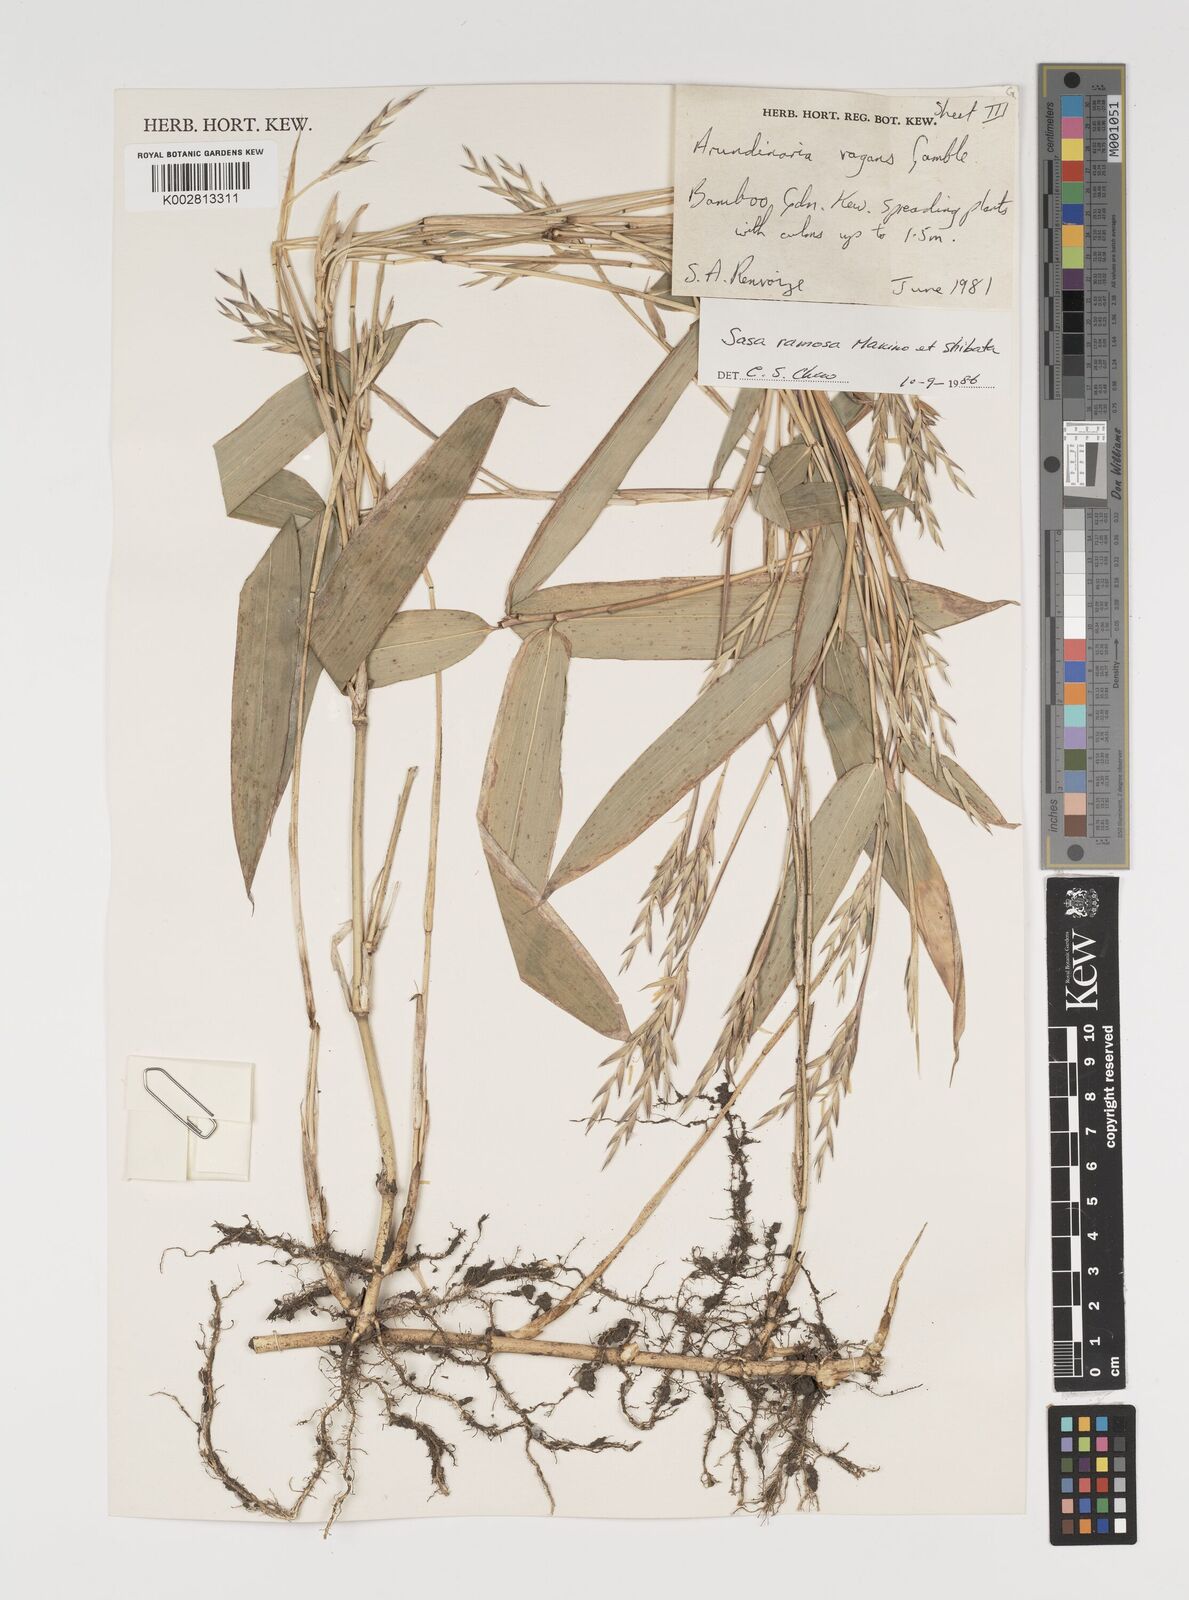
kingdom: Plantae
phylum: Tracheophyta
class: Liliopsida
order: Poales
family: Poaceae
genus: Sasaella
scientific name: Sasaella ramosa
